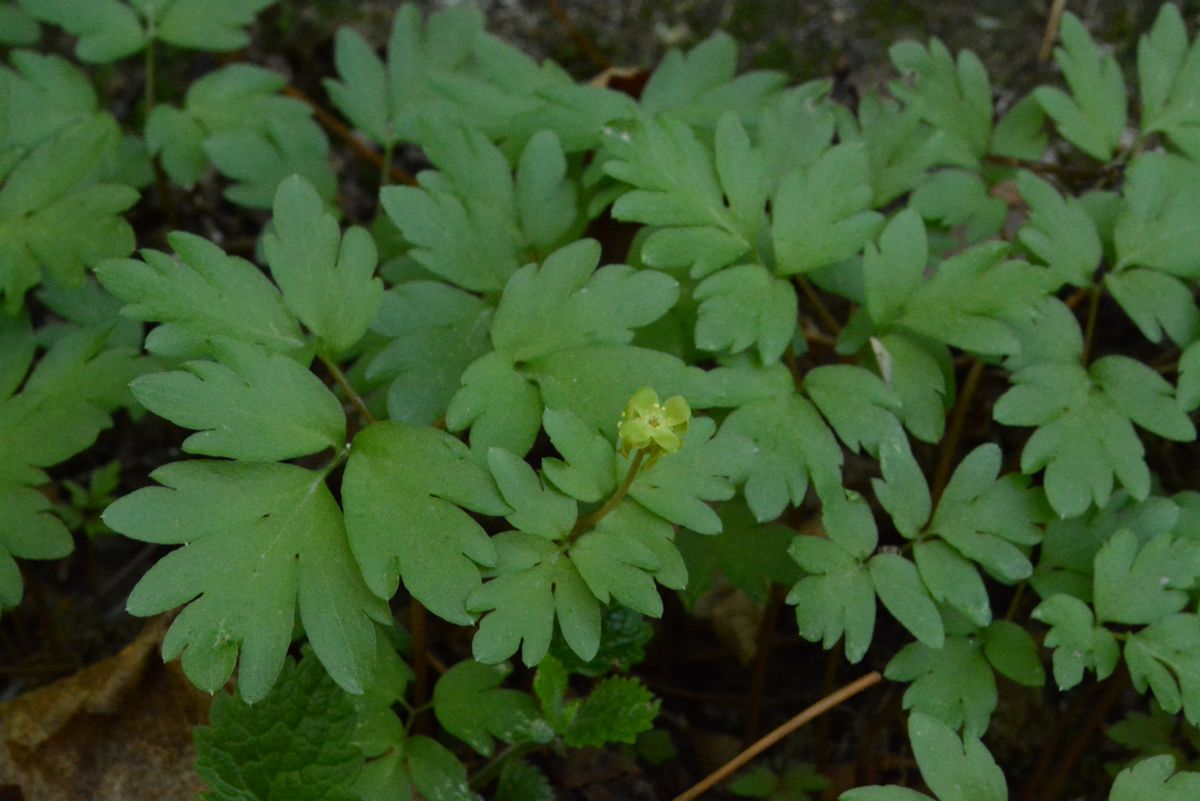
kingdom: Plantae
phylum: Tracheophyta
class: Magnoliopsida
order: Dipsacales
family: Viburnaceae
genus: Adoxa
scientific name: Adoxa moschatellina
